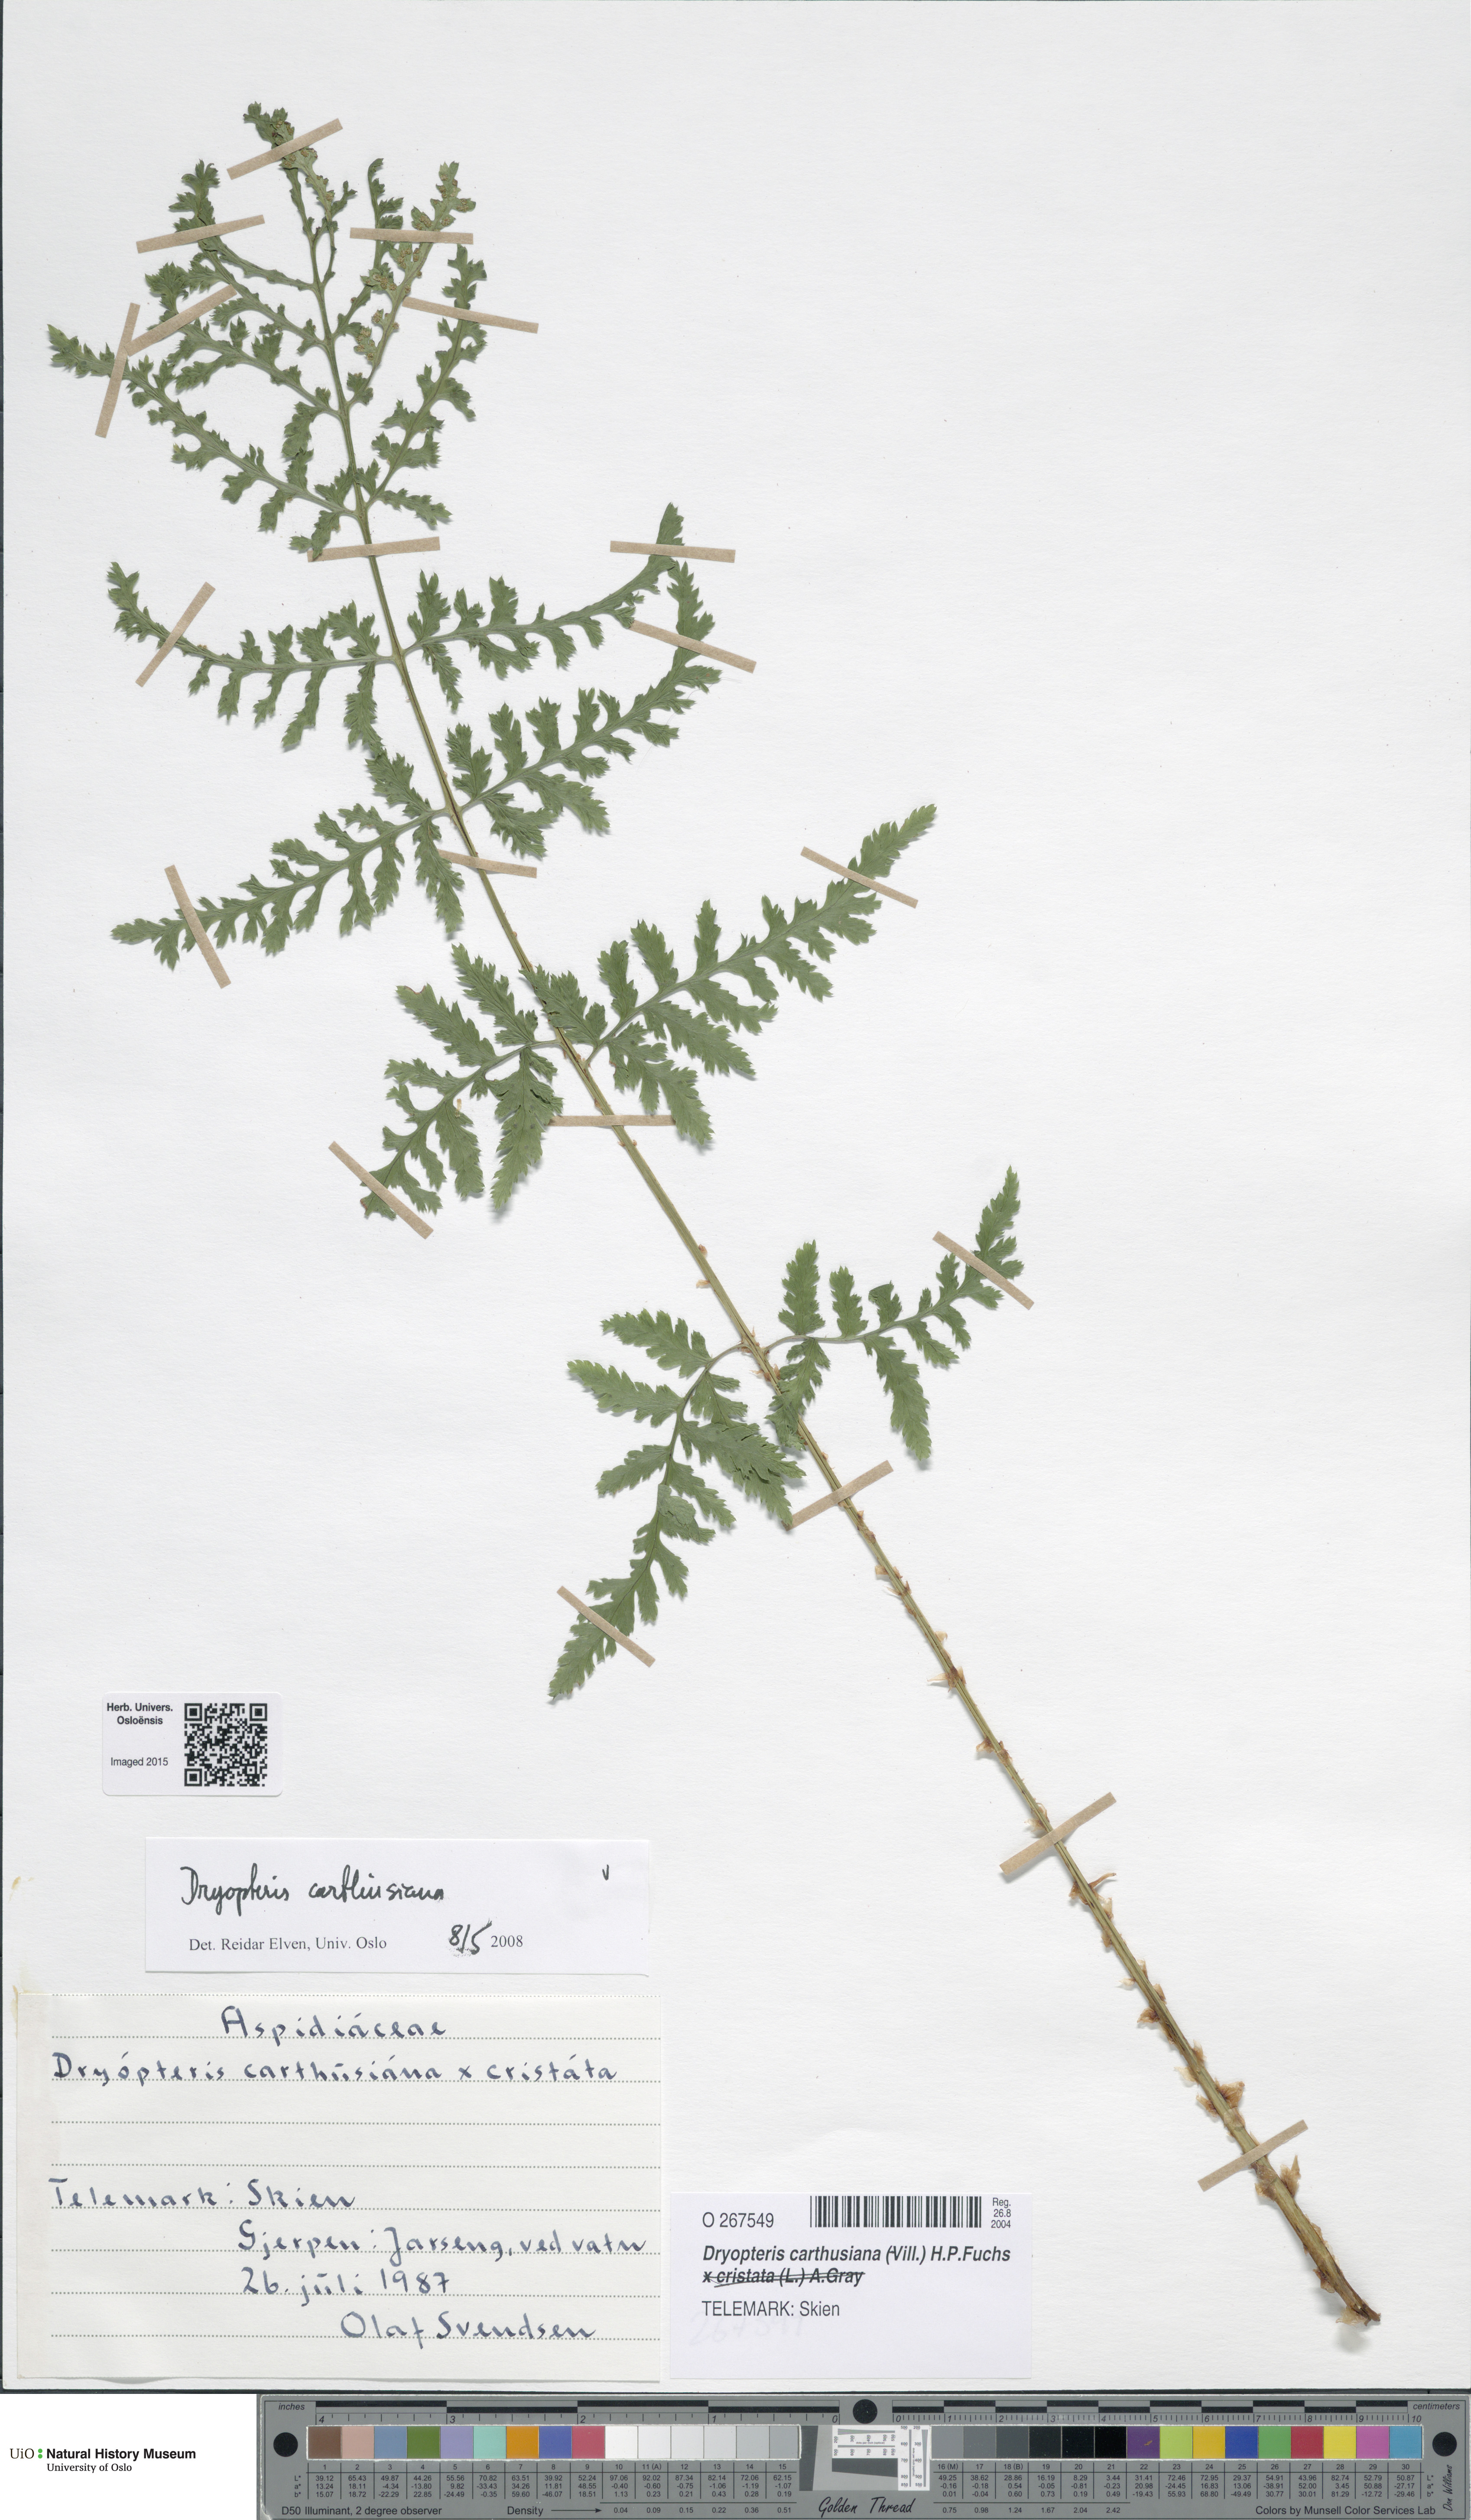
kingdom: Plantae
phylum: Tracheophyta
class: Polypodiopsida
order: Polypodiales
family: Dryopteridaceae
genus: Dryopteris
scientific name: Dryopteris carthusiana
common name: Narrow buckler-fern
